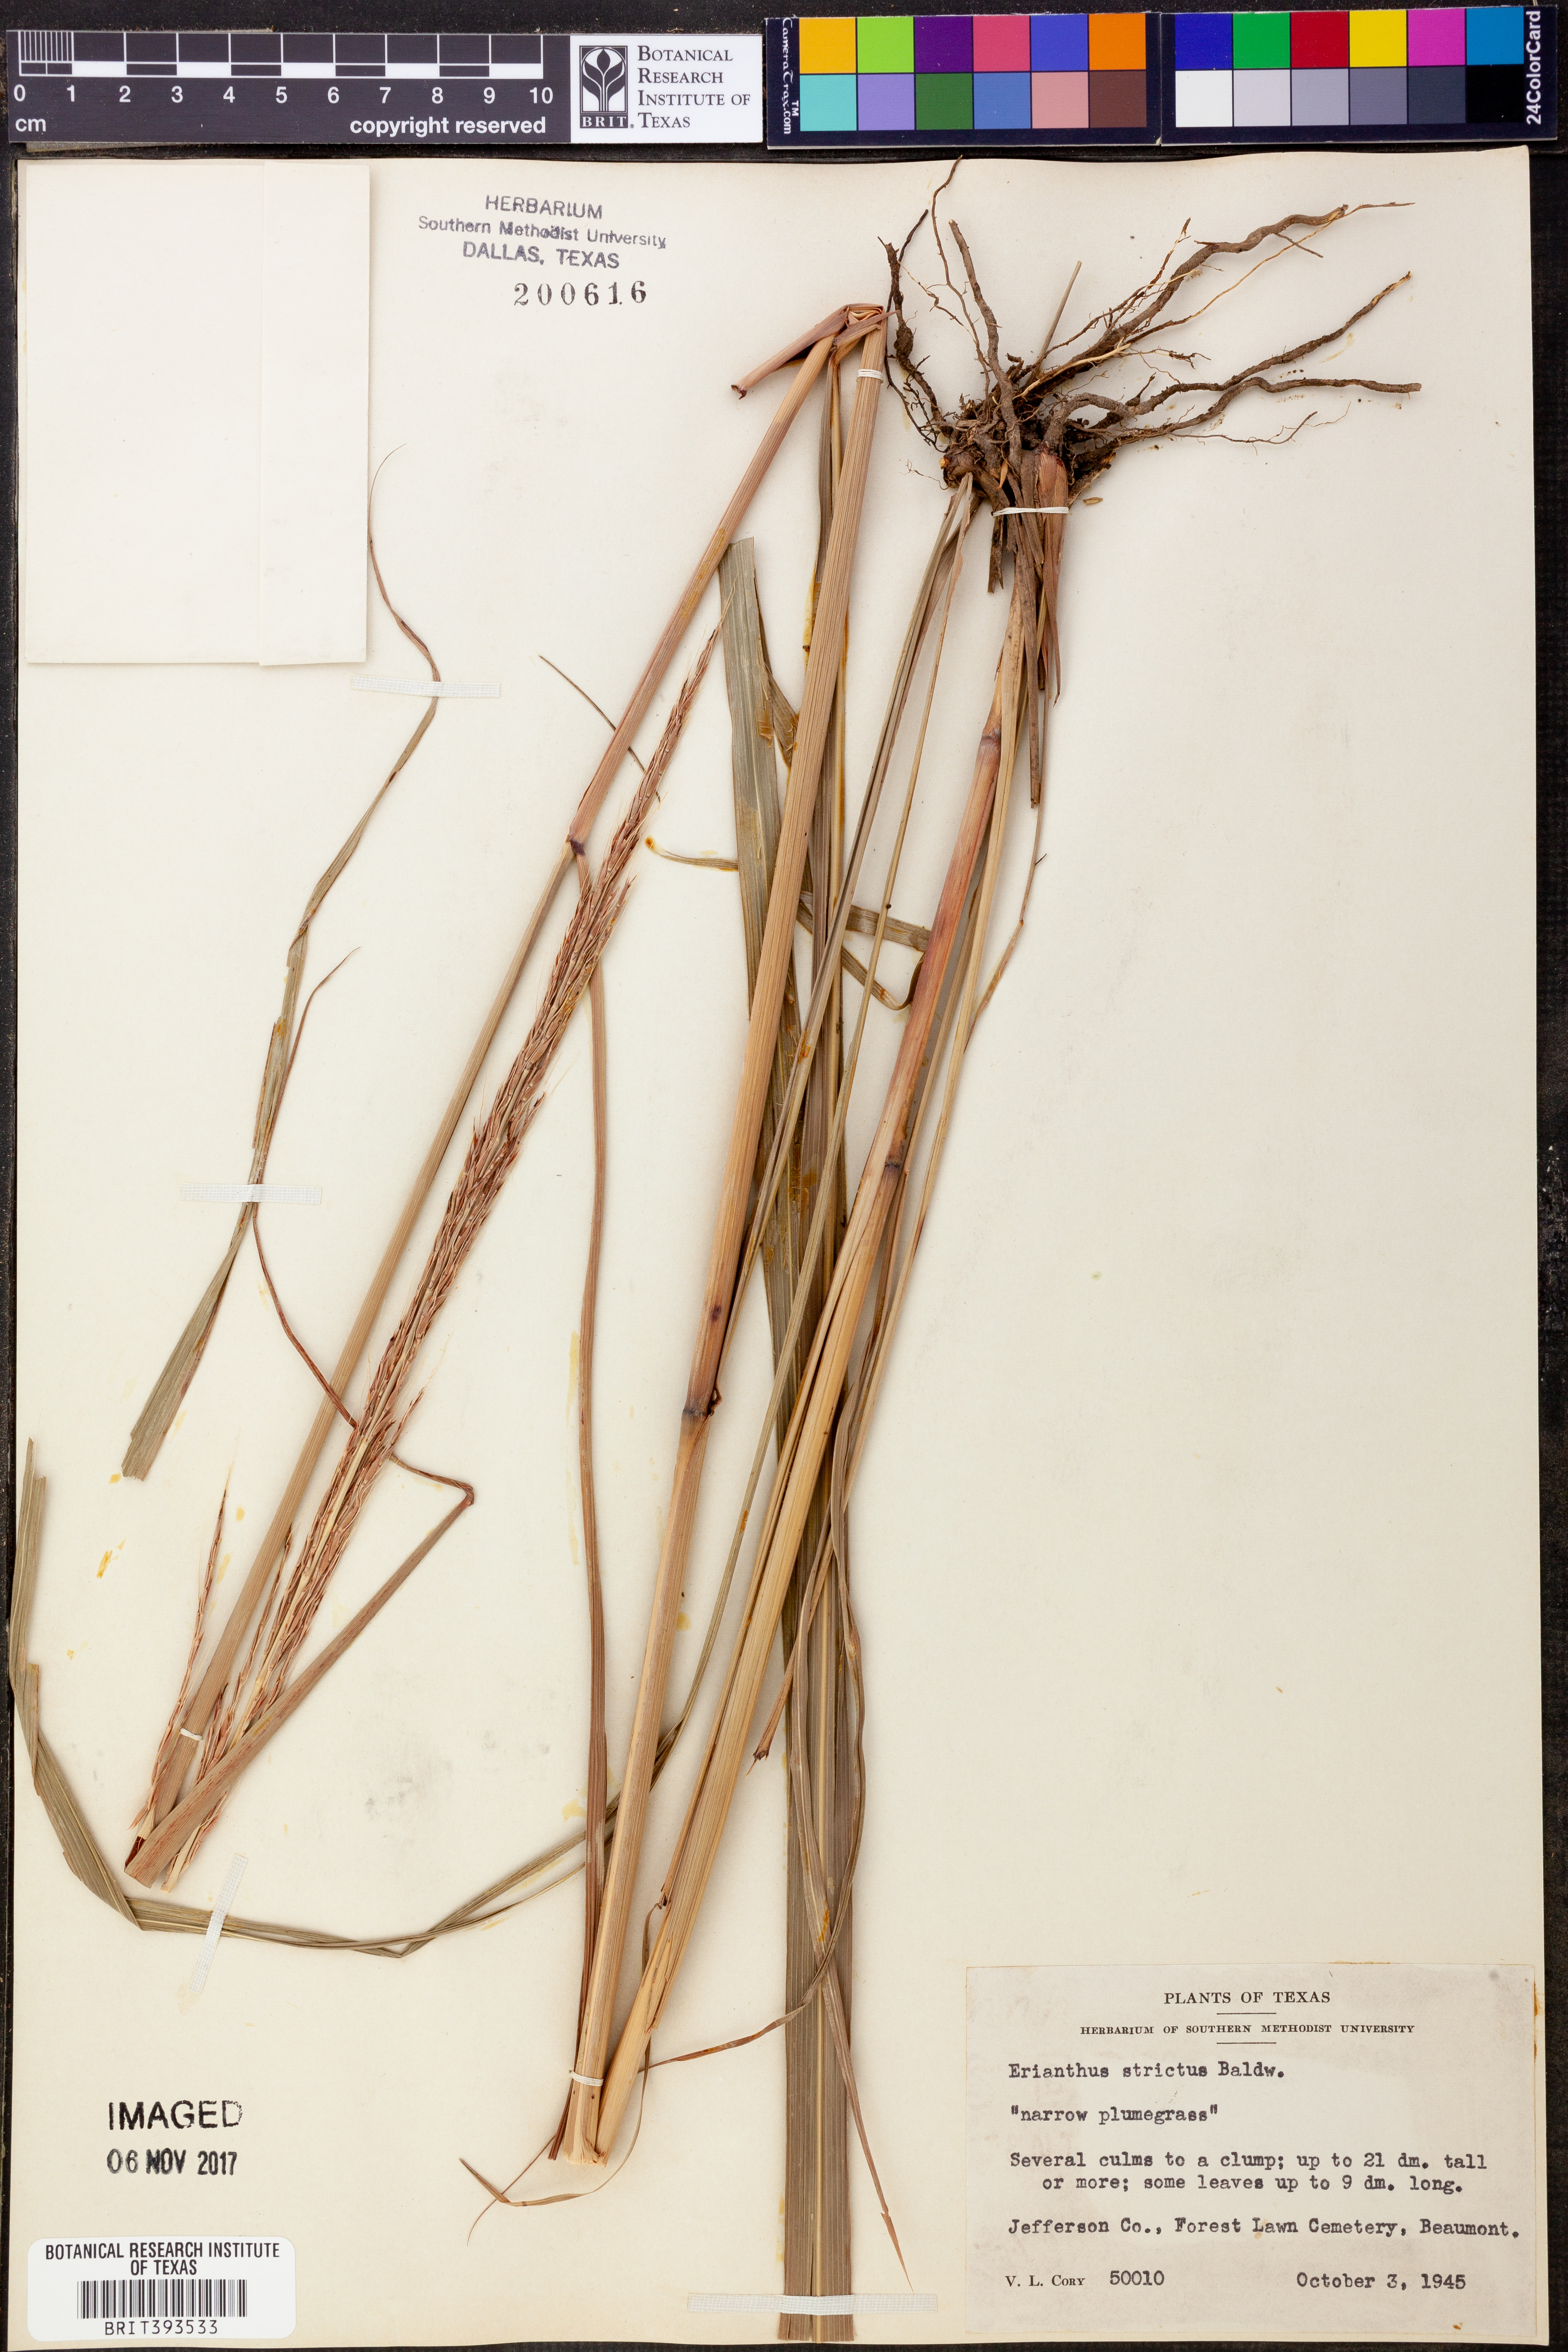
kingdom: Plantae
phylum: Tracheophyta
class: Liliopsida
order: Poales
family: Poaceae
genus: Erianthus
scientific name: Erianthus strictus
